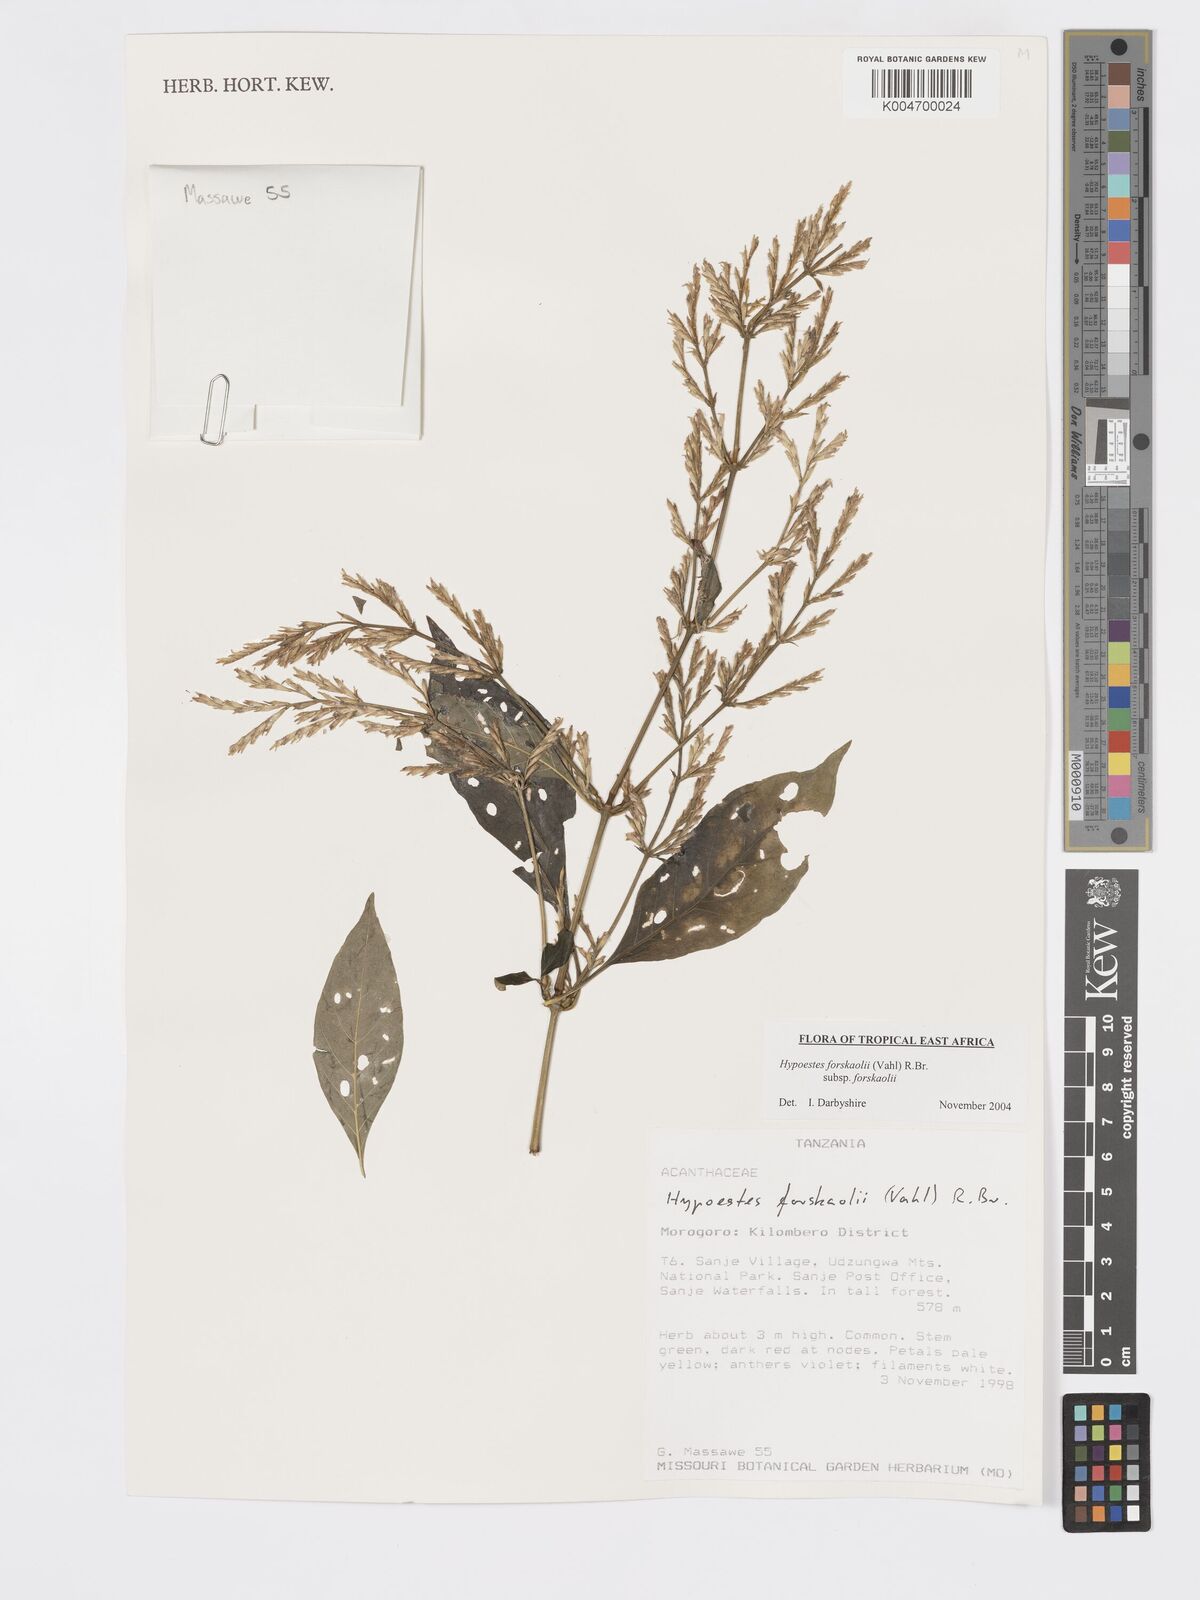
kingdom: Plantae
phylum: Tracheophyta
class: Magnoliopsida
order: Lamiales
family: Acanthaceae
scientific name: Acanthaceae
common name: Acanthaceae
